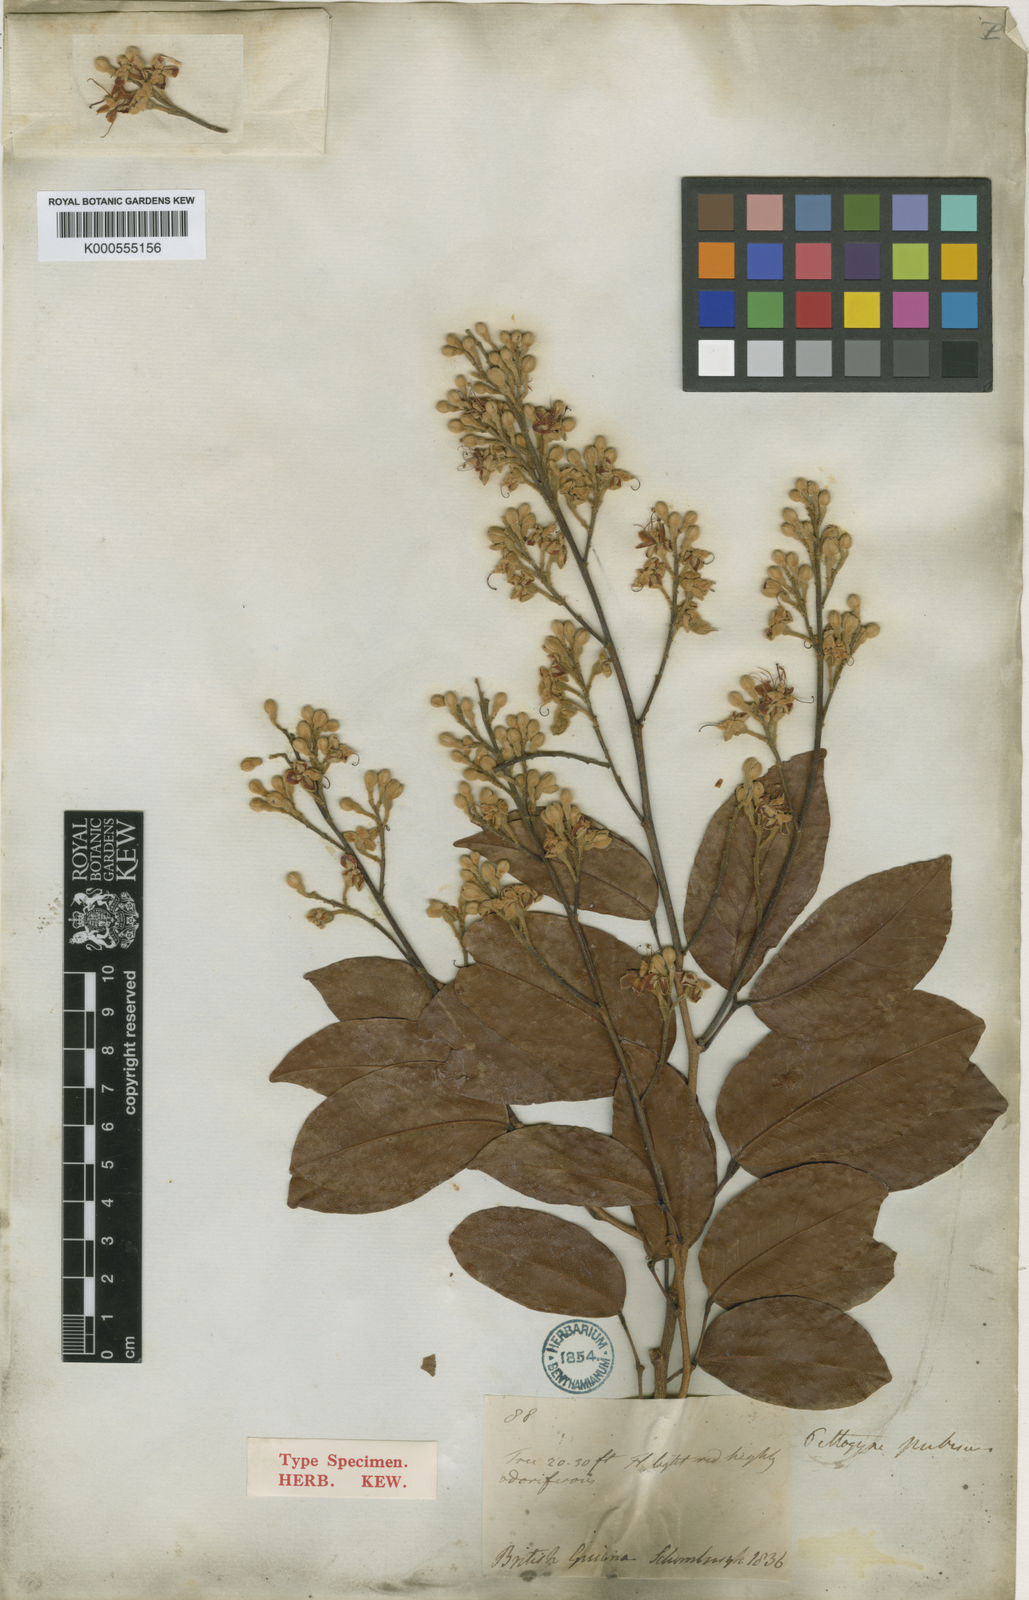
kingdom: Plantae
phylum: Tracheophyta
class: Magnoliopsida
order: Fabales
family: Fabaceae
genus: Peltogyne
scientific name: Peltogyne paniculata
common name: Purpleheart
